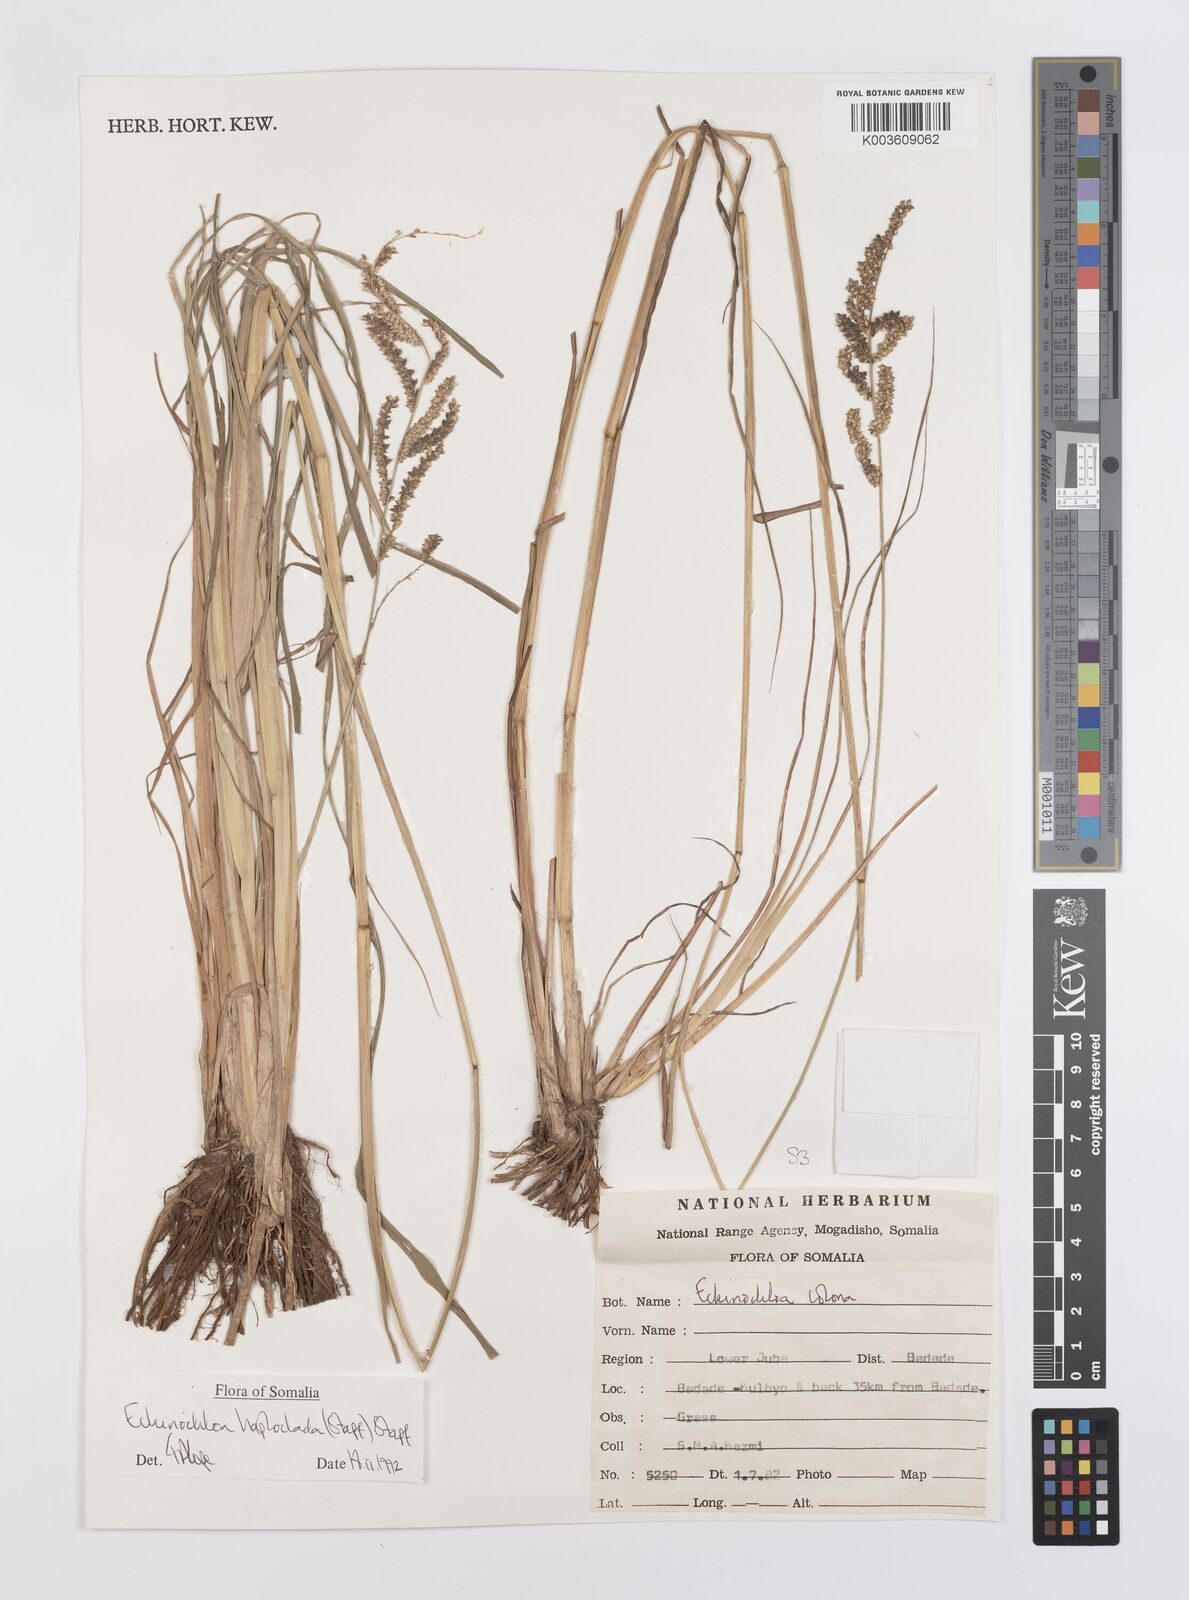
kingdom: Plantae
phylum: Tracheophyta
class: Liliopsida
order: Poales
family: Poaceae
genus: Echinochloa
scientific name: Echinochloa haploclada
